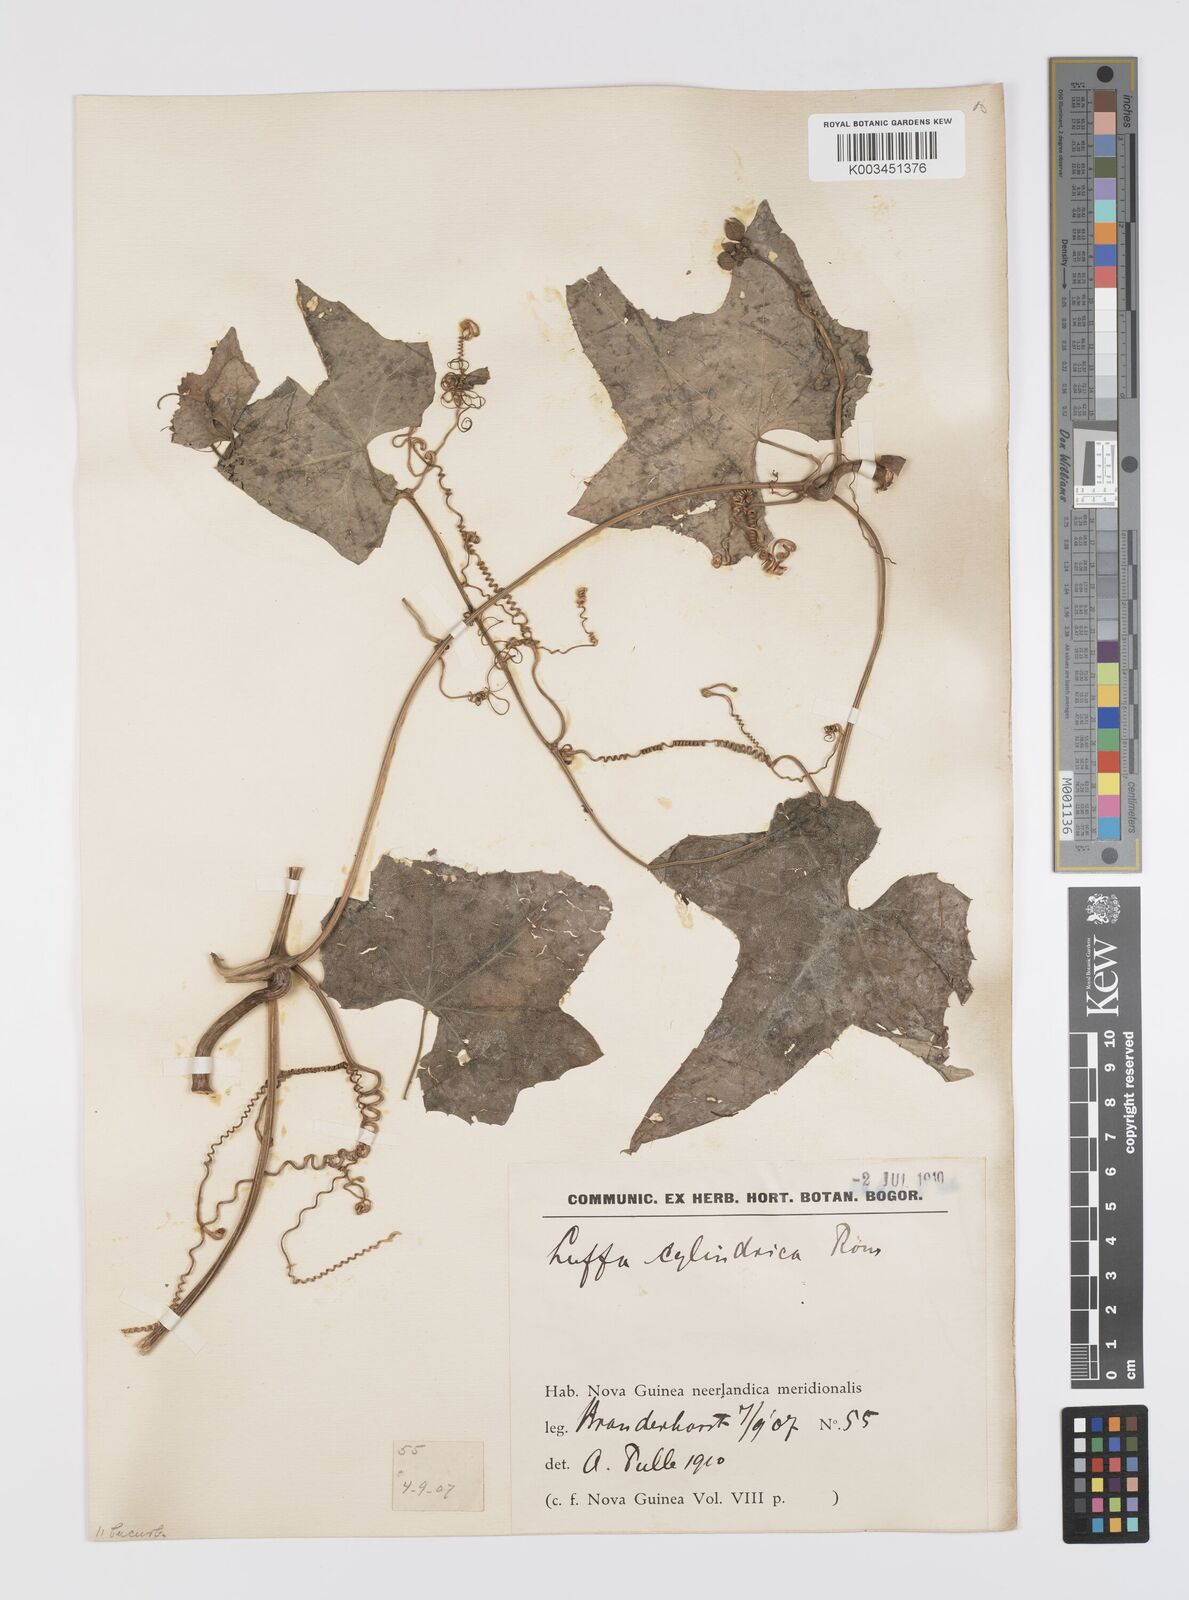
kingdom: Plantae
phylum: Tracheophyta
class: Magnoliopsida
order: Cucurbitales
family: Cucurbitaceae
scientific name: Cucurbitaceae
